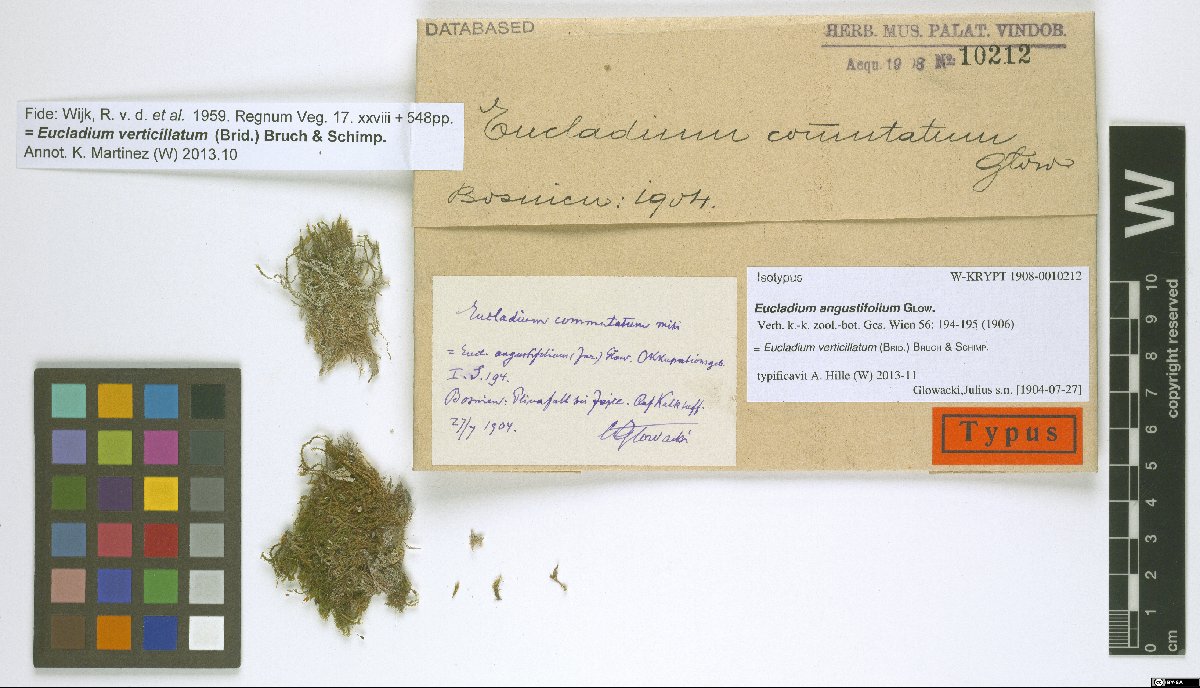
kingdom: Plantae
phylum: Bryophyta
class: Bryopsida
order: Pottiales
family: Pottiaceae
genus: Eucladium
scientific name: Eucladium verticillatum
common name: Whorled tufa-moss
